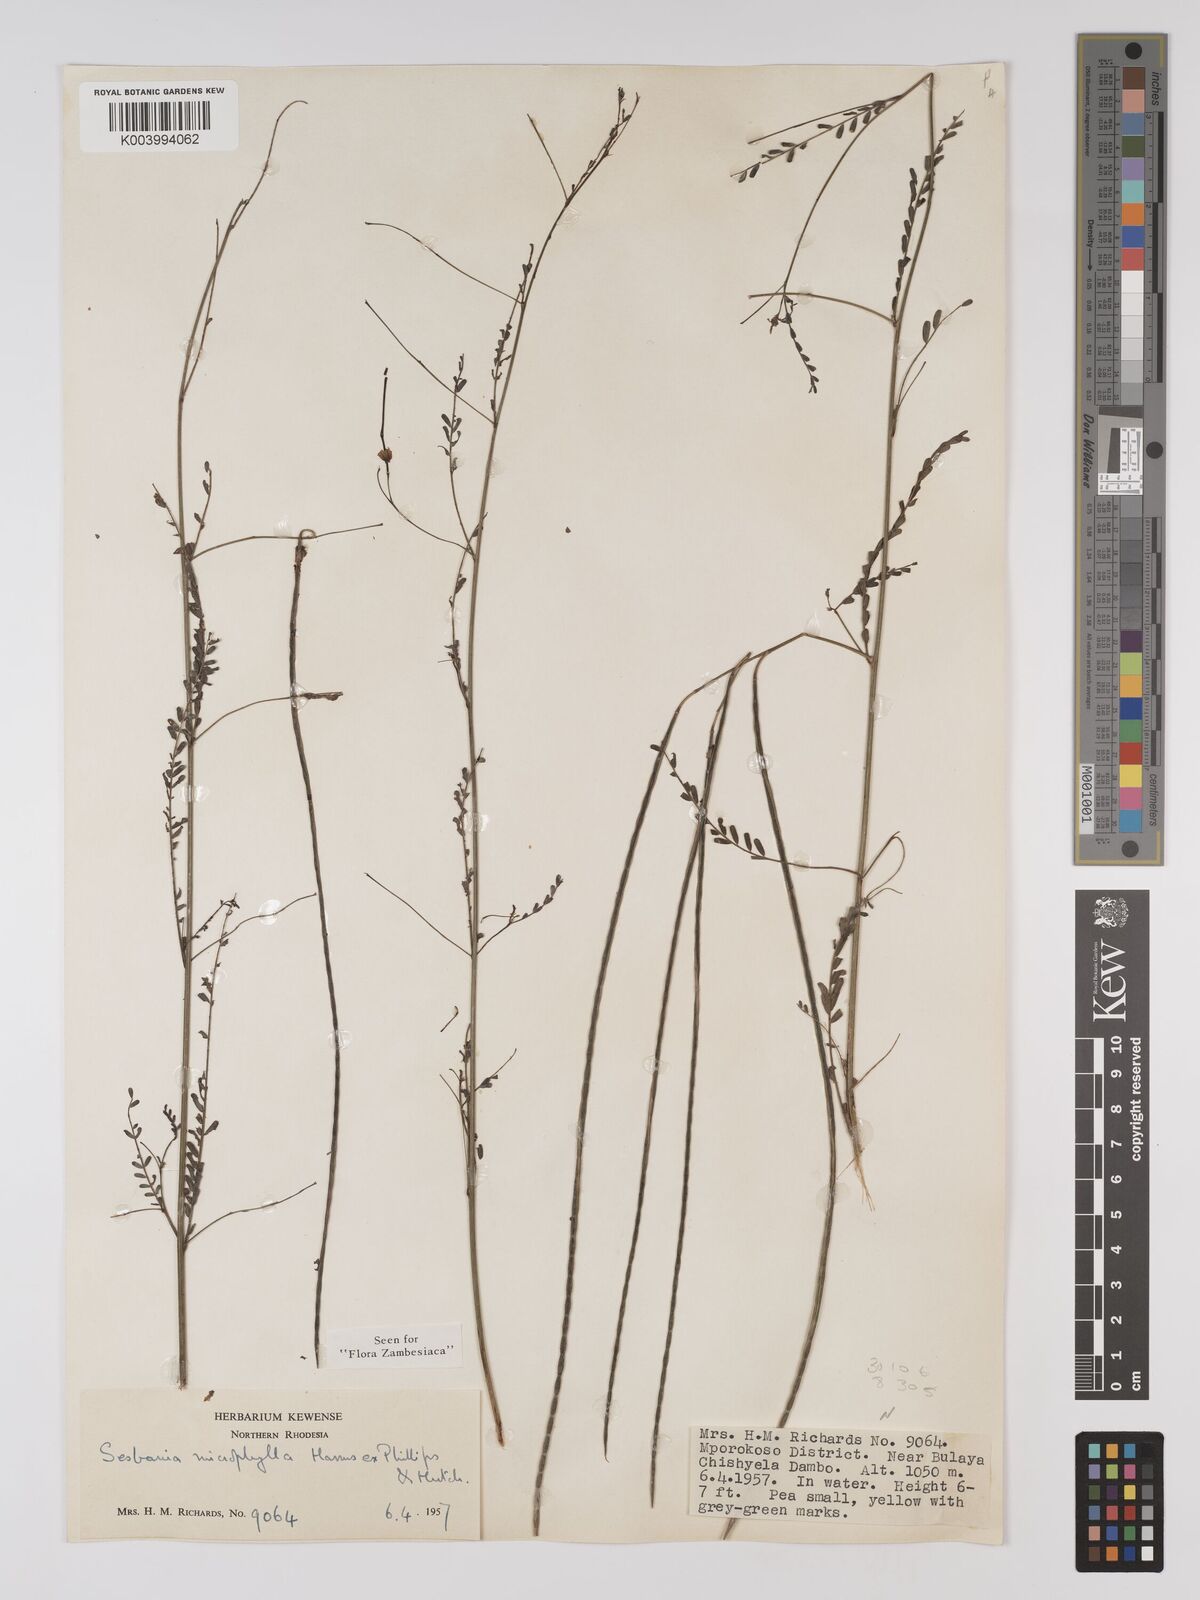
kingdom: Plantae
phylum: Tracheophyta
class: Magnoliopsida
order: Fabales
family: Fabaceae
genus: Sesbania
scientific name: Sesbania microphylla
